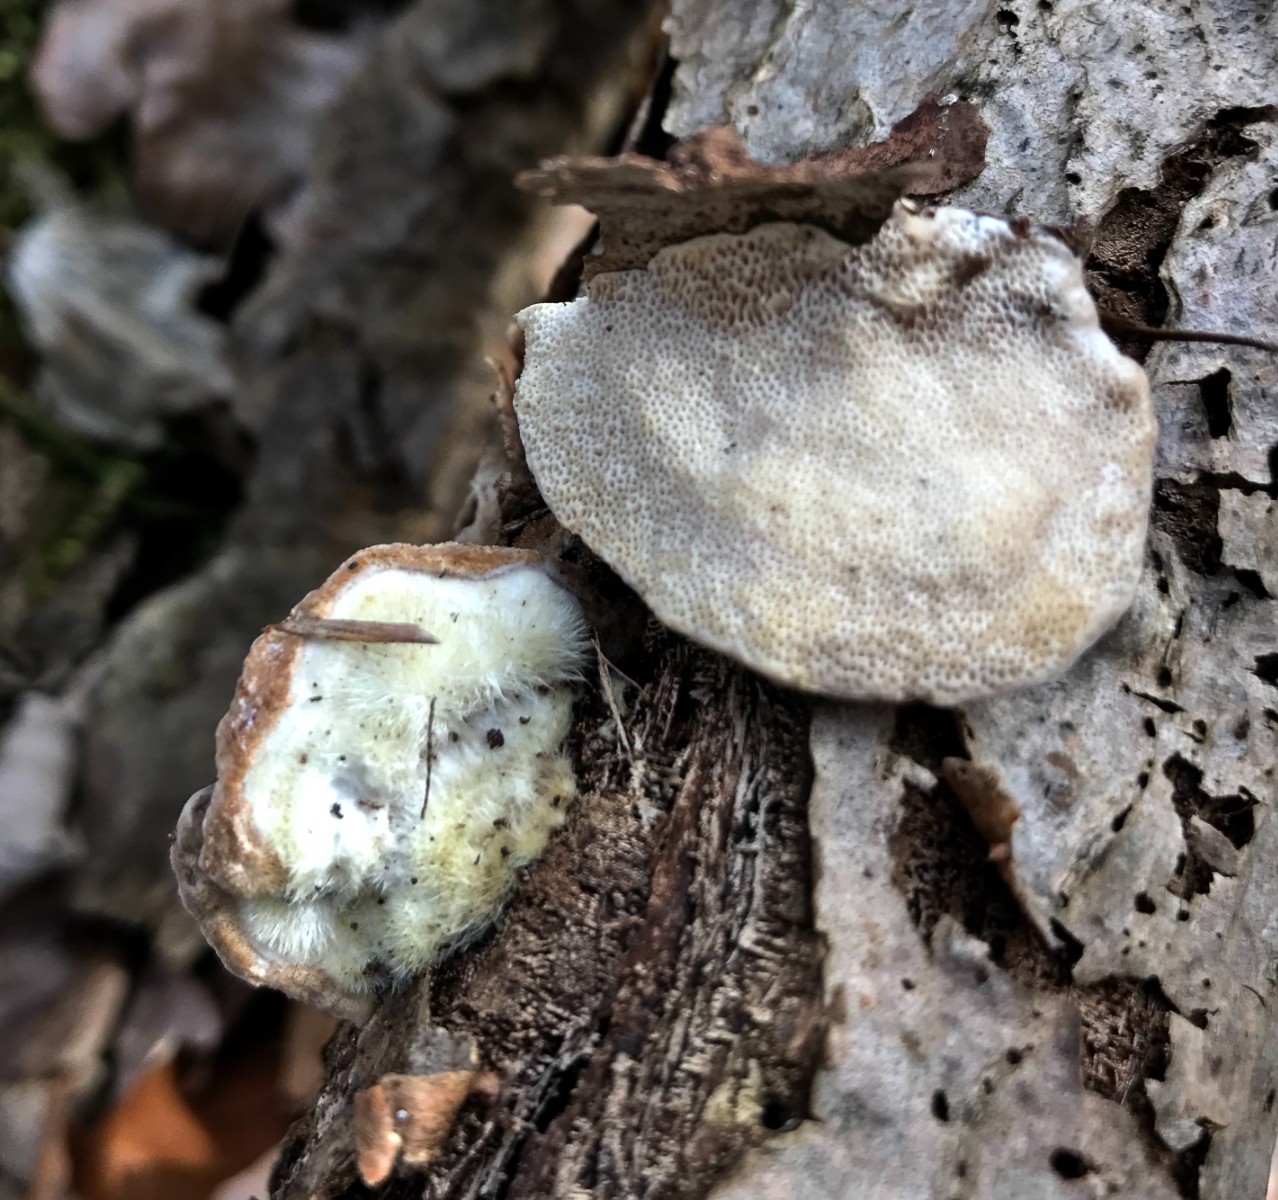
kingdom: Fungi
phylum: Basidiomycota
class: Agaricomycetes
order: Polyporales
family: Polyporaceae
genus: Trametes
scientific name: Trametes hirsuta
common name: håret læderporesvamp
